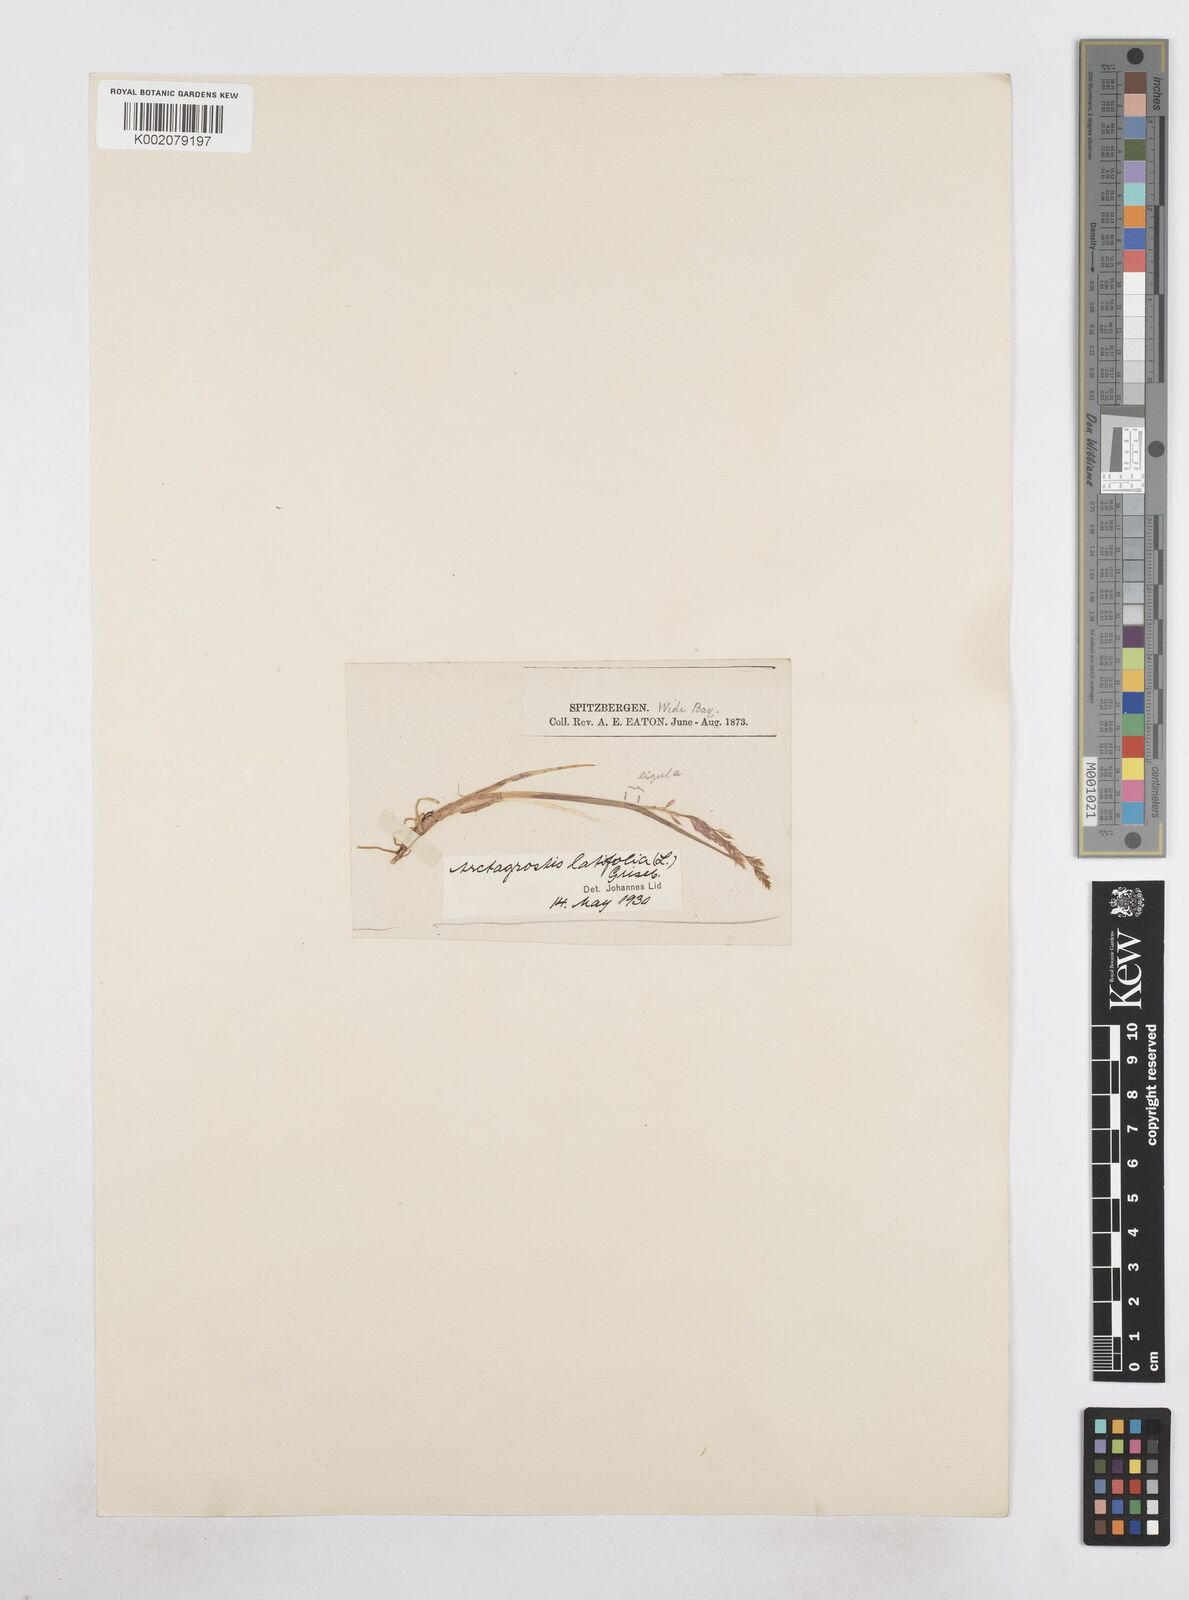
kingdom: Plantae
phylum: Tracheophyta
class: Liliopsida
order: Poales
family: Poaceae
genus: Arctagrostis
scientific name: Arctagrostis latifolia
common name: Arctic grass
